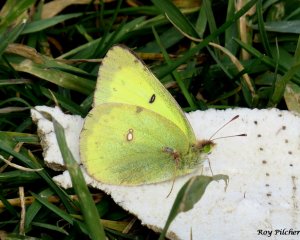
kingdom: Animalia
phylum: Arthropoda
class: Insecta
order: Lepidoptera
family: Pieridae
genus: Colias
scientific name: Colias philodice
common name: Clouded Sulphur
